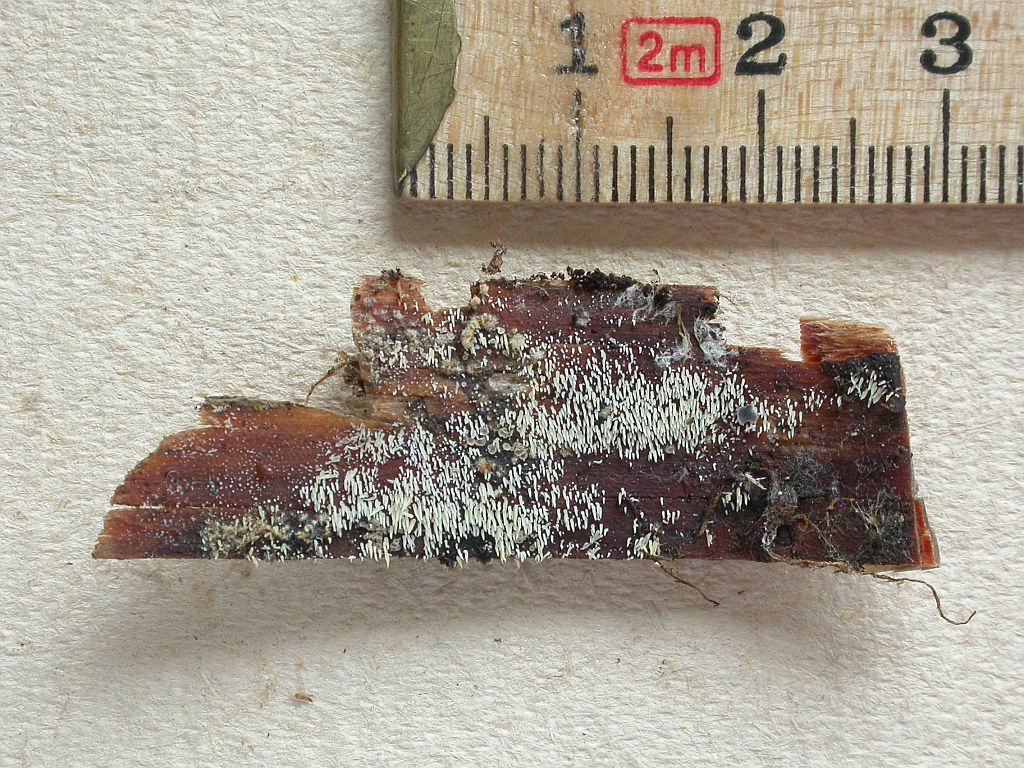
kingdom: Fungi
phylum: Basidiomycota
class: Agaricomycetes
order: Agaricales
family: Clavariaceae
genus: Mucronella
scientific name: Mucronella calva
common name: hvid hængepig
